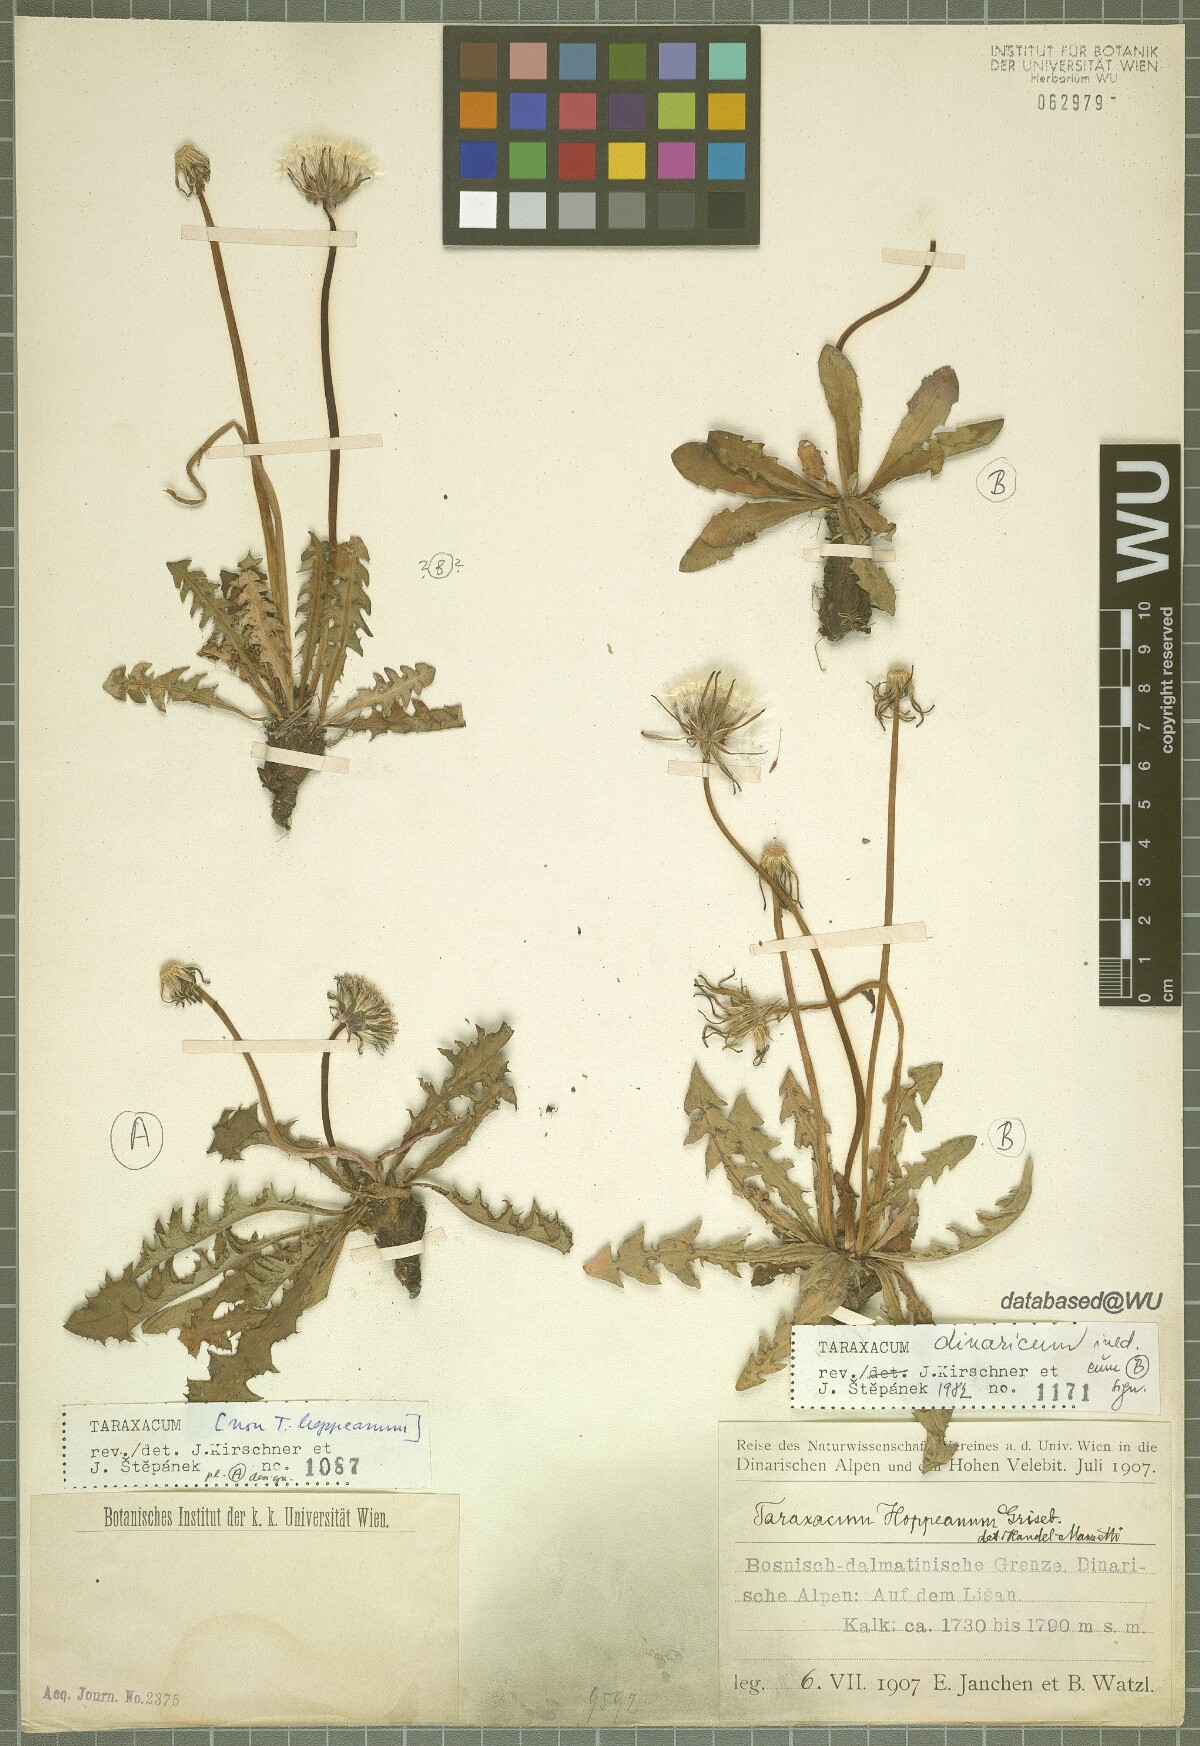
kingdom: Plantae
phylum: Tracheophyta
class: Magnoliopsida
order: Asterales
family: Asteraceae
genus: Taraxacum
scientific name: Taraxacum
